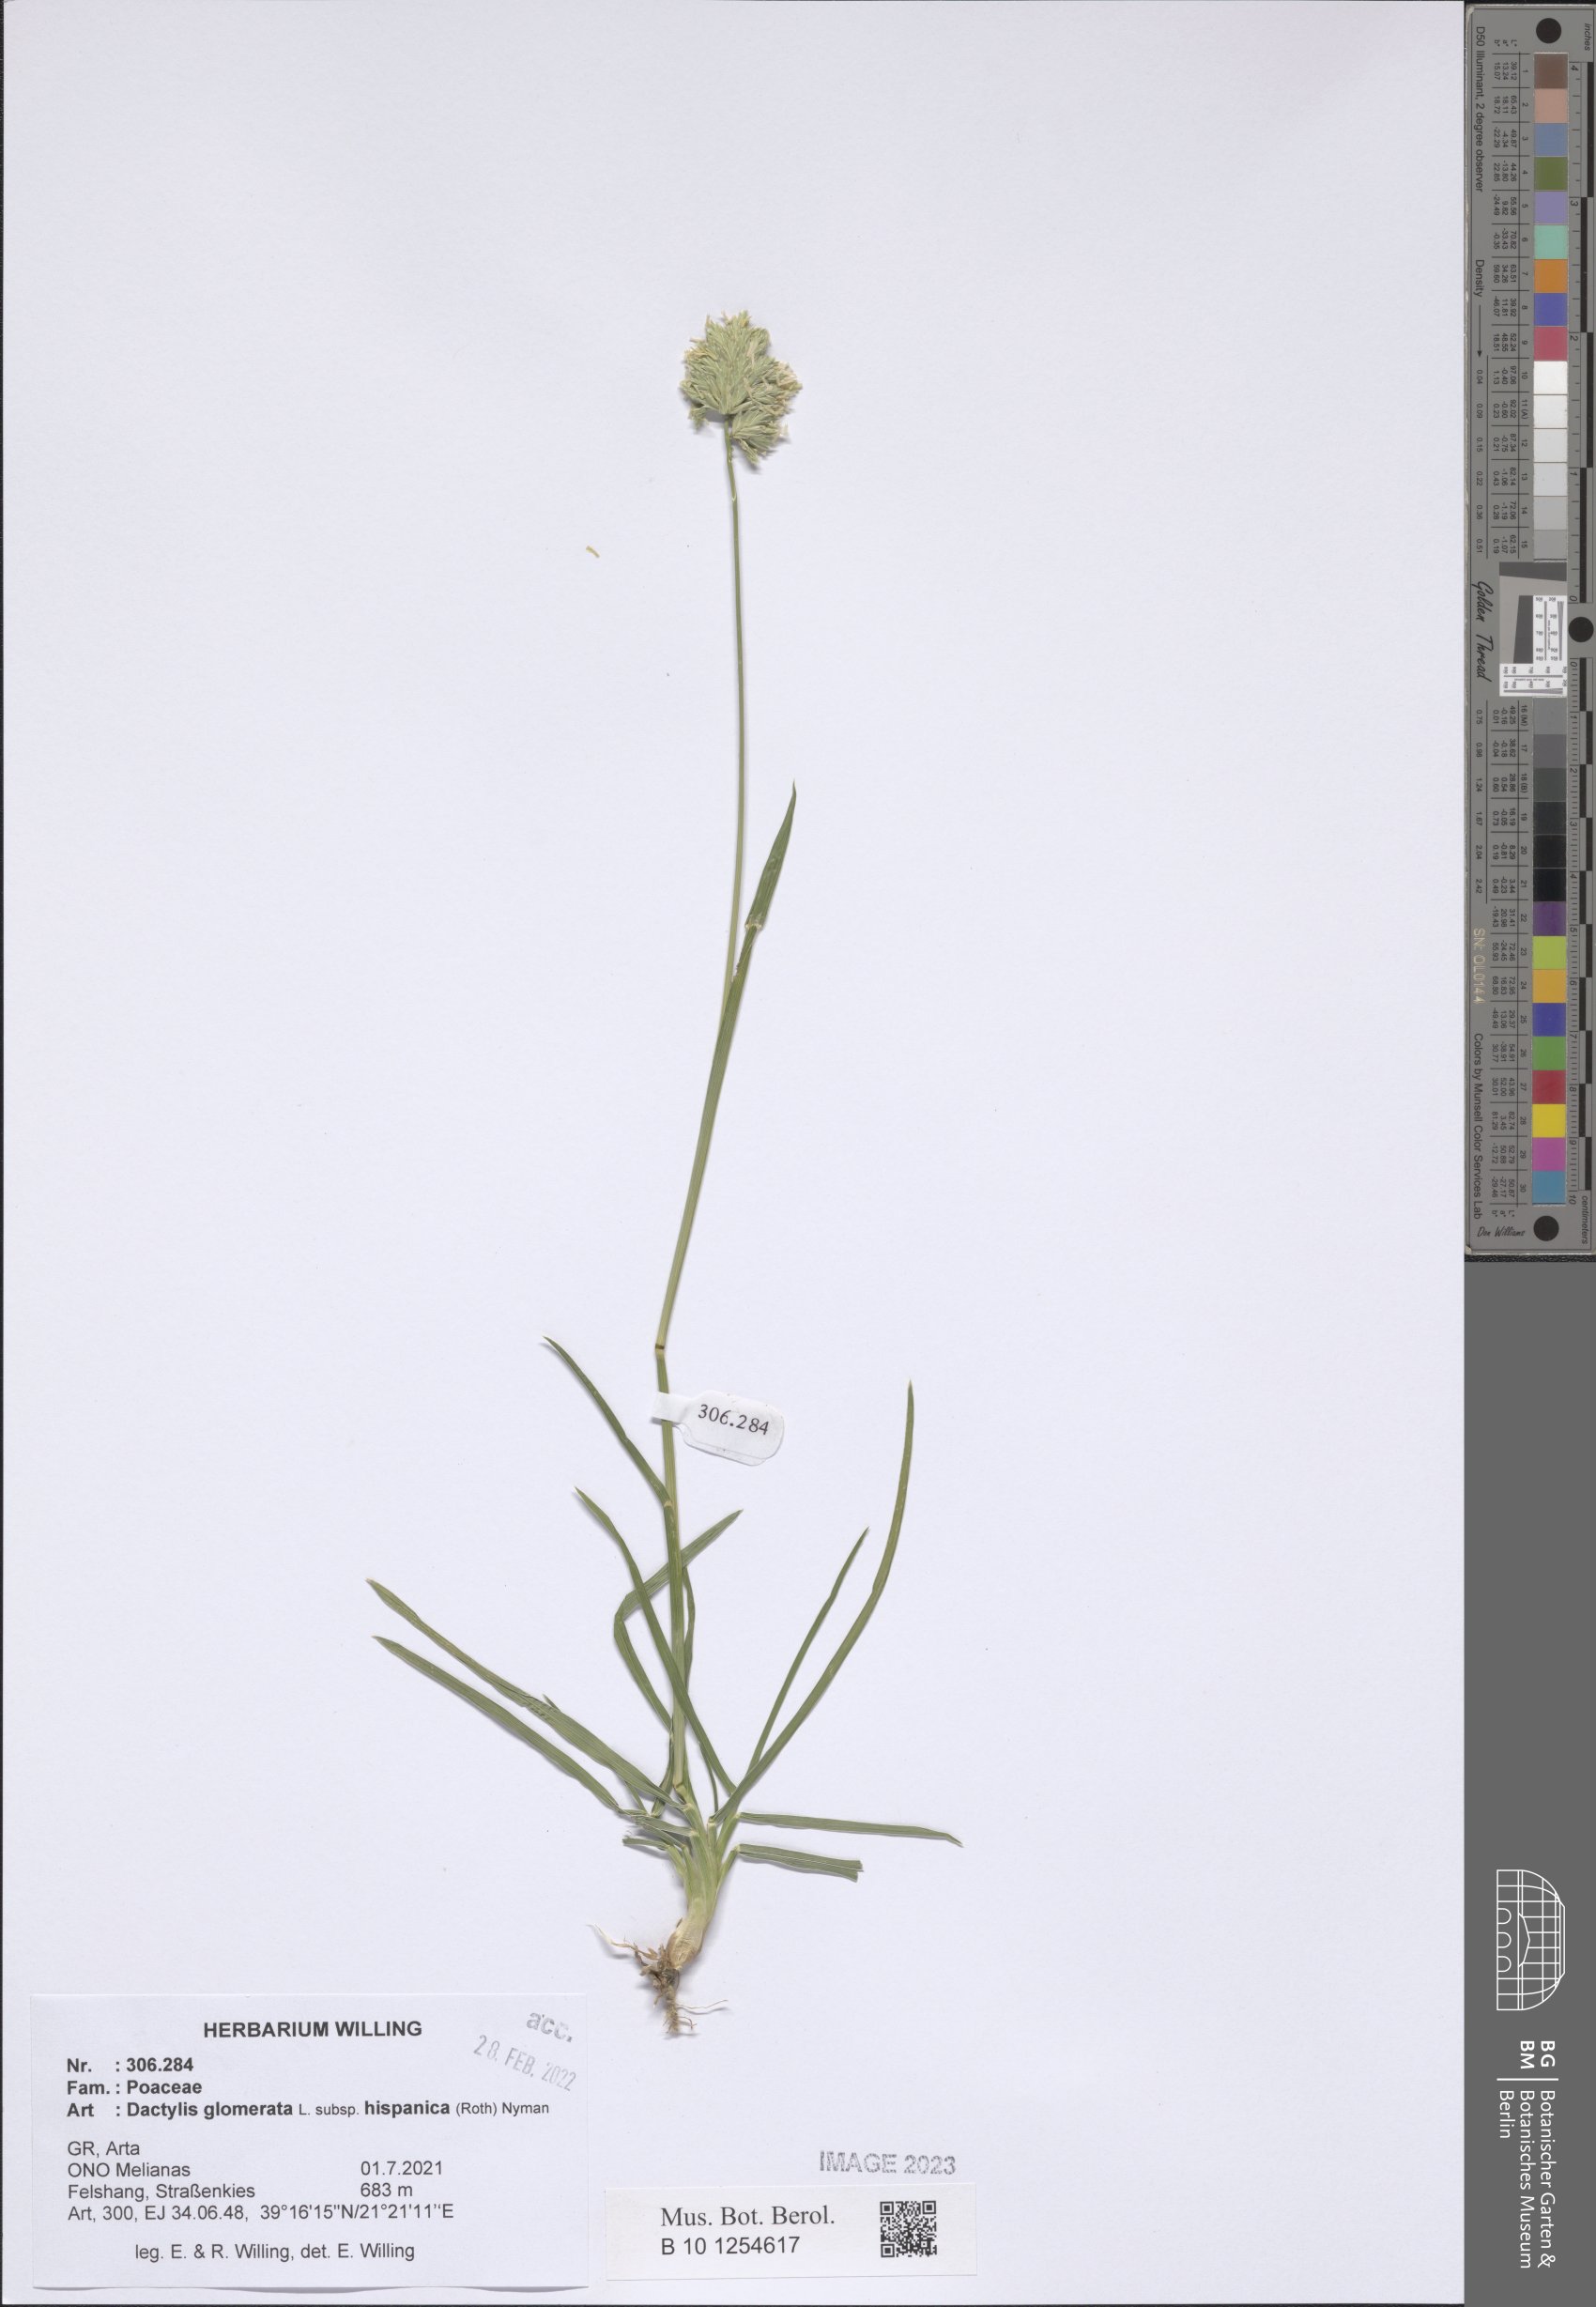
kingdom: Plantae
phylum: Tracheophyta
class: Liliopsida
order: Poales
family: Poaceae
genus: Dactylis
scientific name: Dactylis glomerata
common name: Orchardgrass
